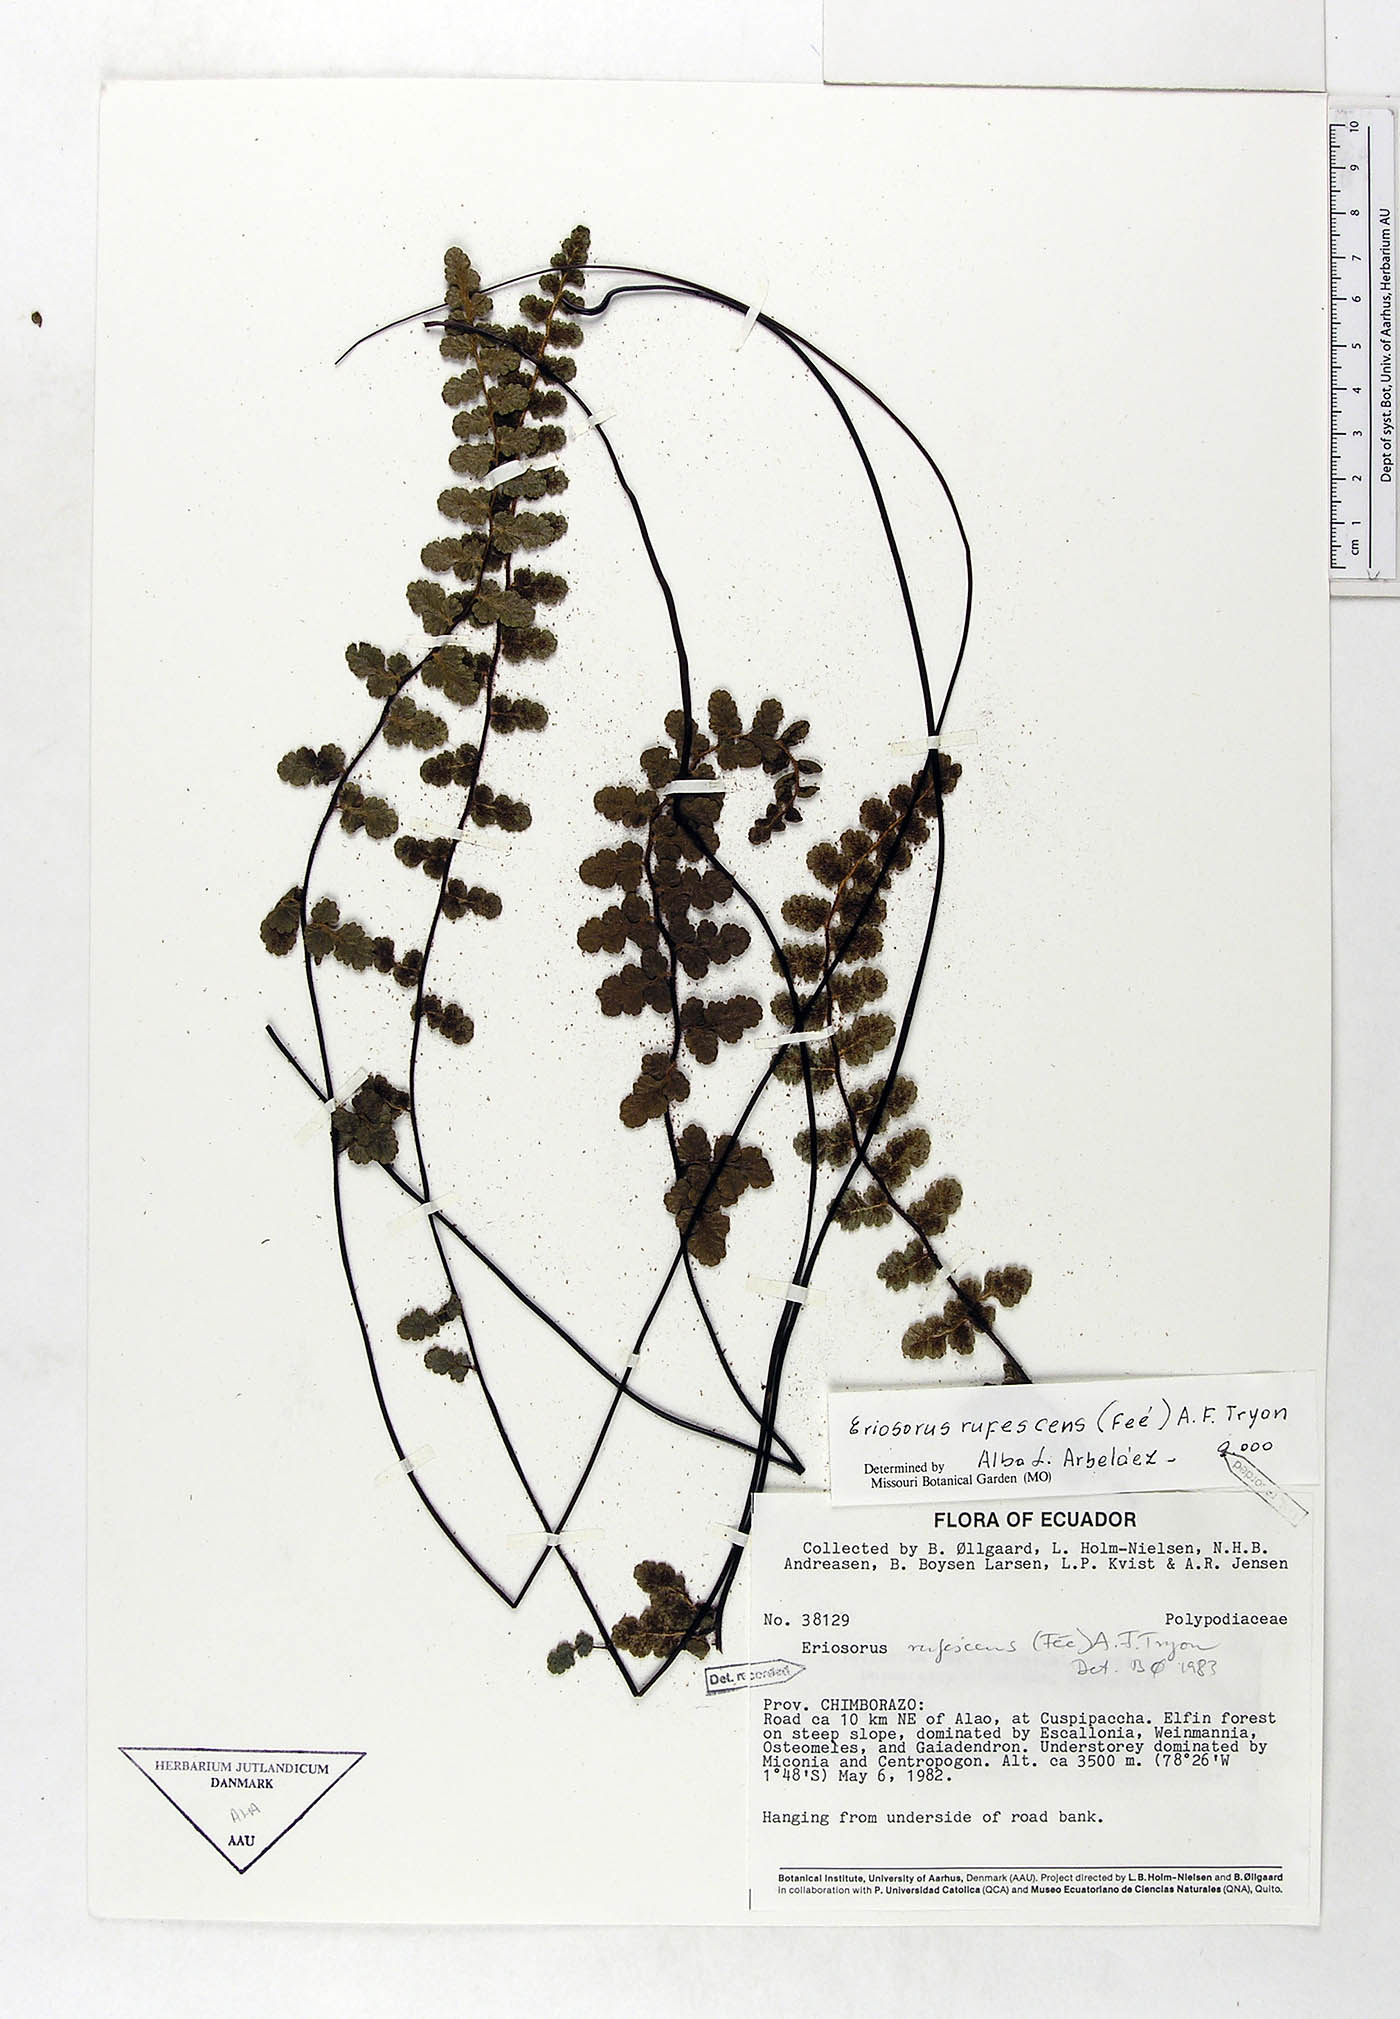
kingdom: Plantae
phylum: Tracheophyta
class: Polypodiopsida
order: Polypodiales
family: Pteridaceae
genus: Jamesonia
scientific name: Jamesonia rufescens
